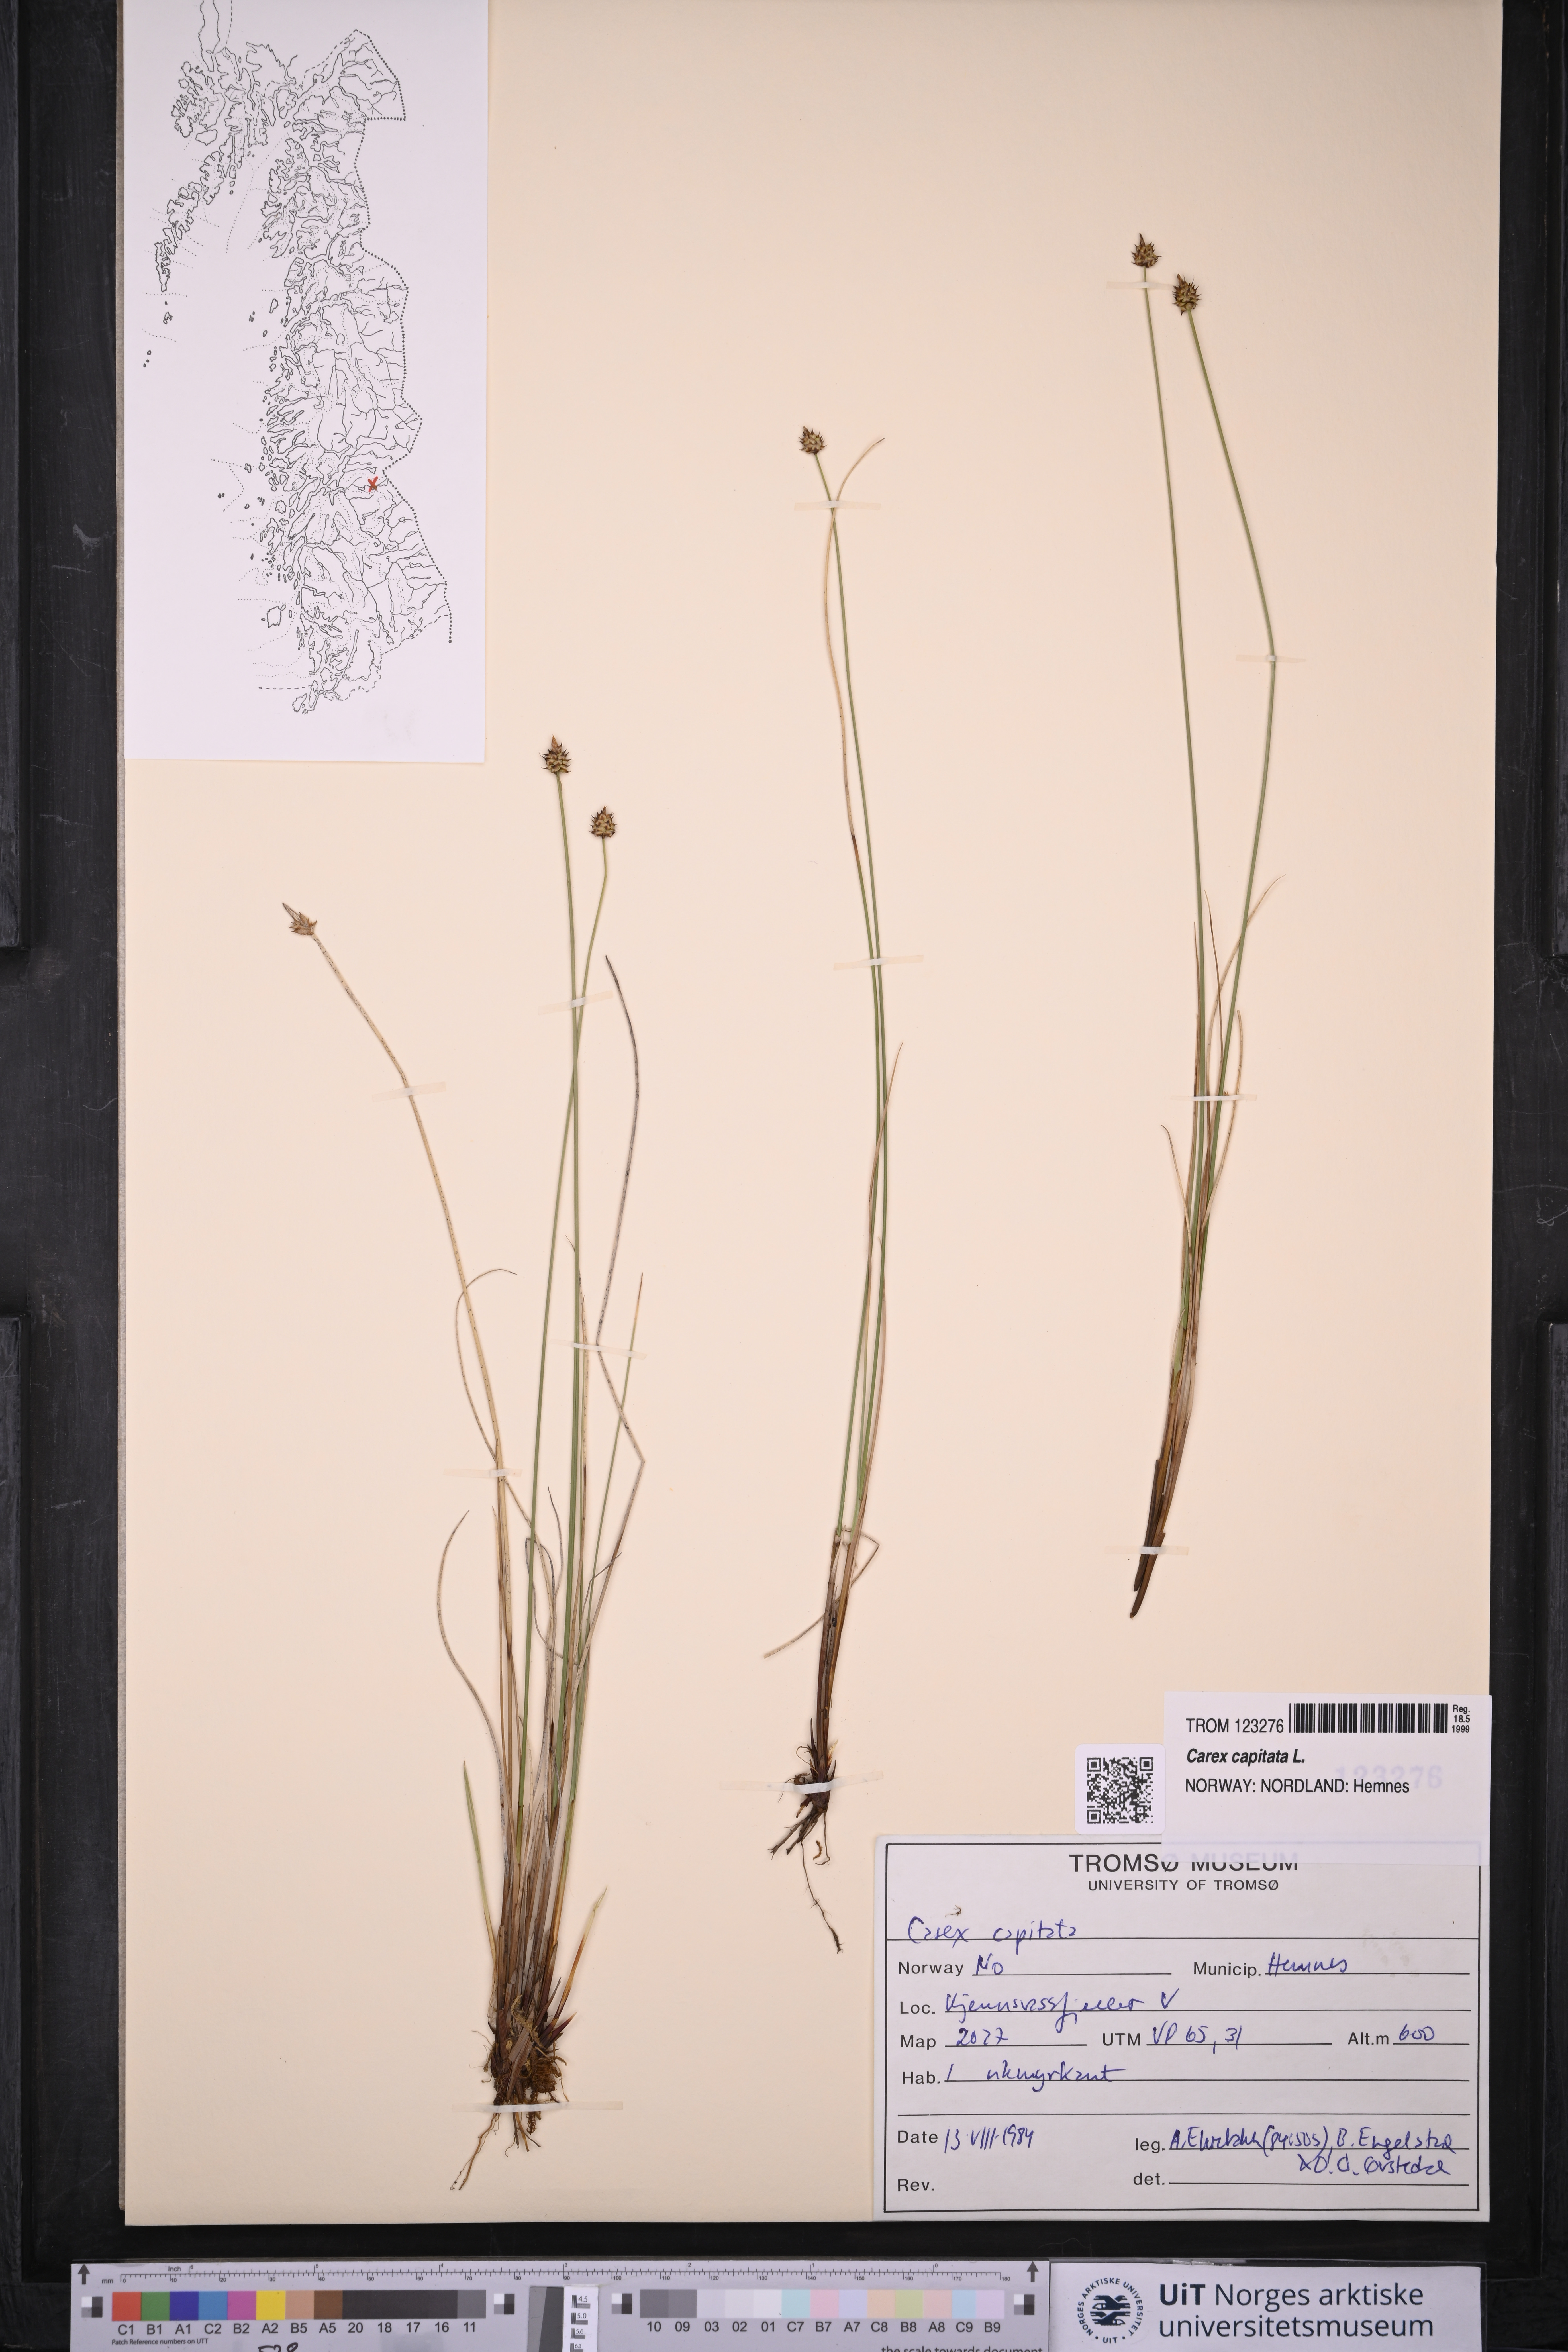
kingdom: Plantae
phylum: Tracheophyta
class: Liliopsida
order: Poales
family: Cyperaceae
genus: Carex
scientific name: Carex capitata
